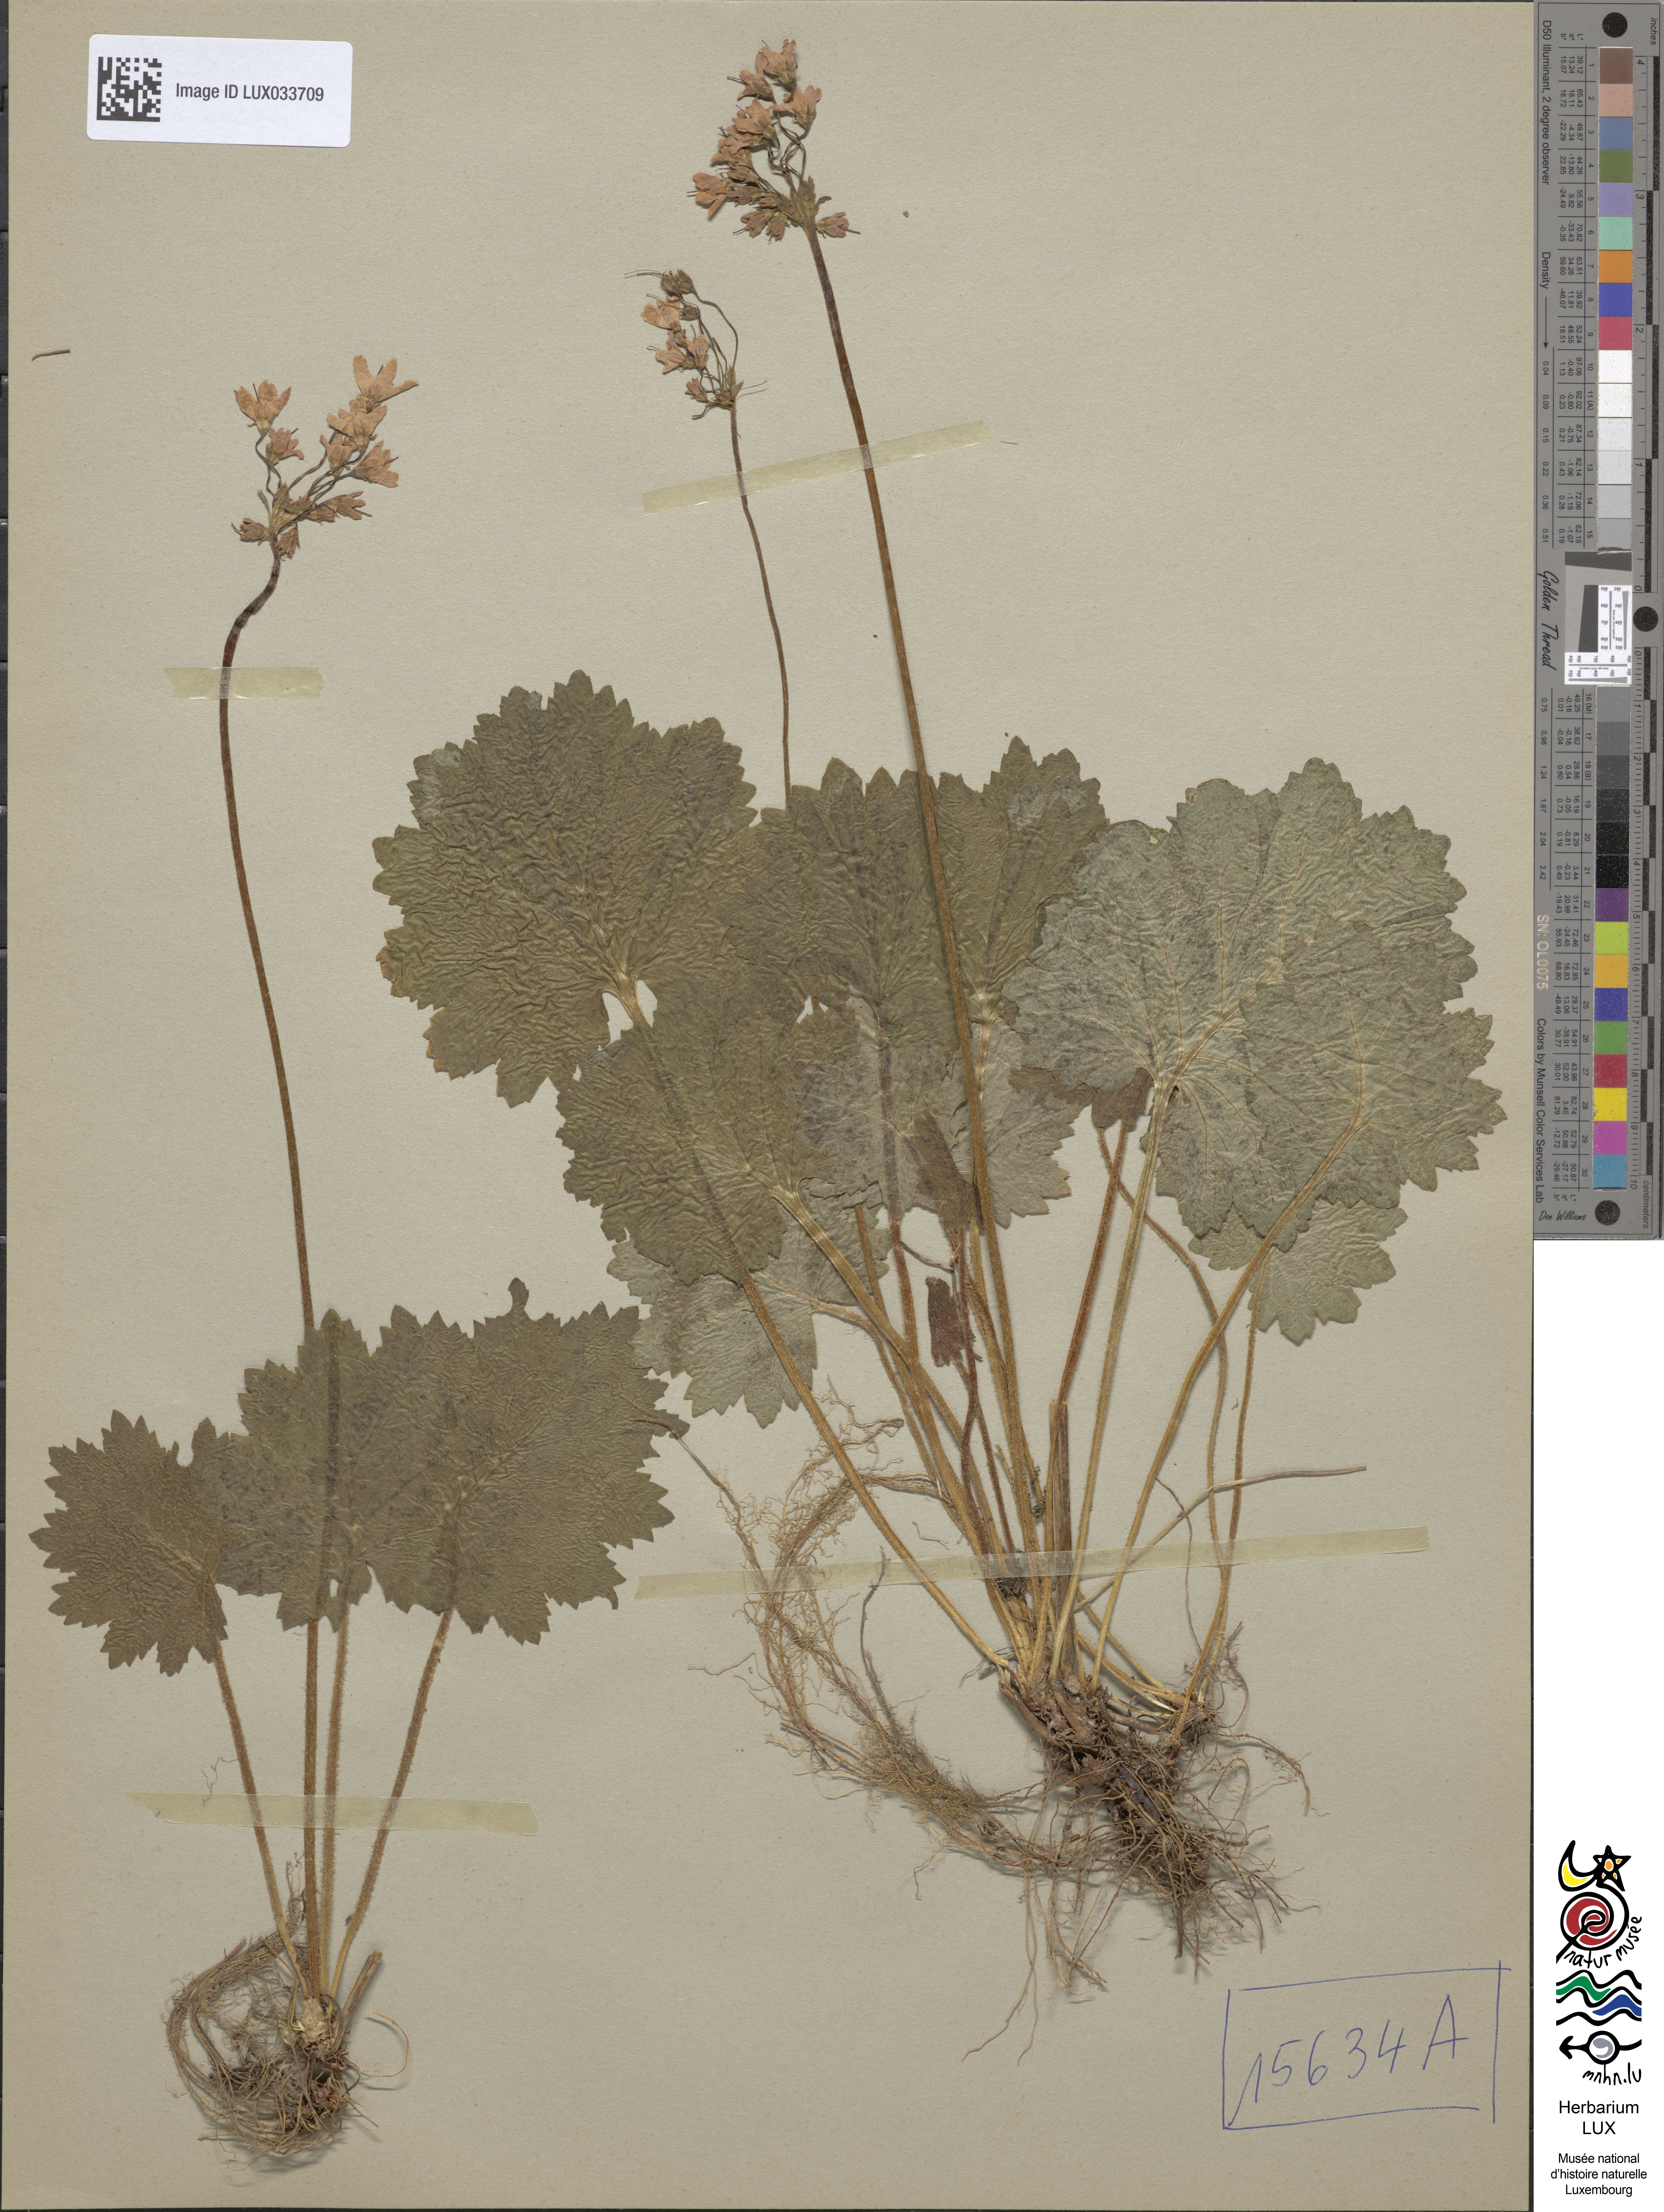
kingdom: Plantae
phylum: Tracheophyta
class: Magnoliopsida
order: Ericales
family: Primulaceae
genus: Primula
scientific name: Primula matthioli
